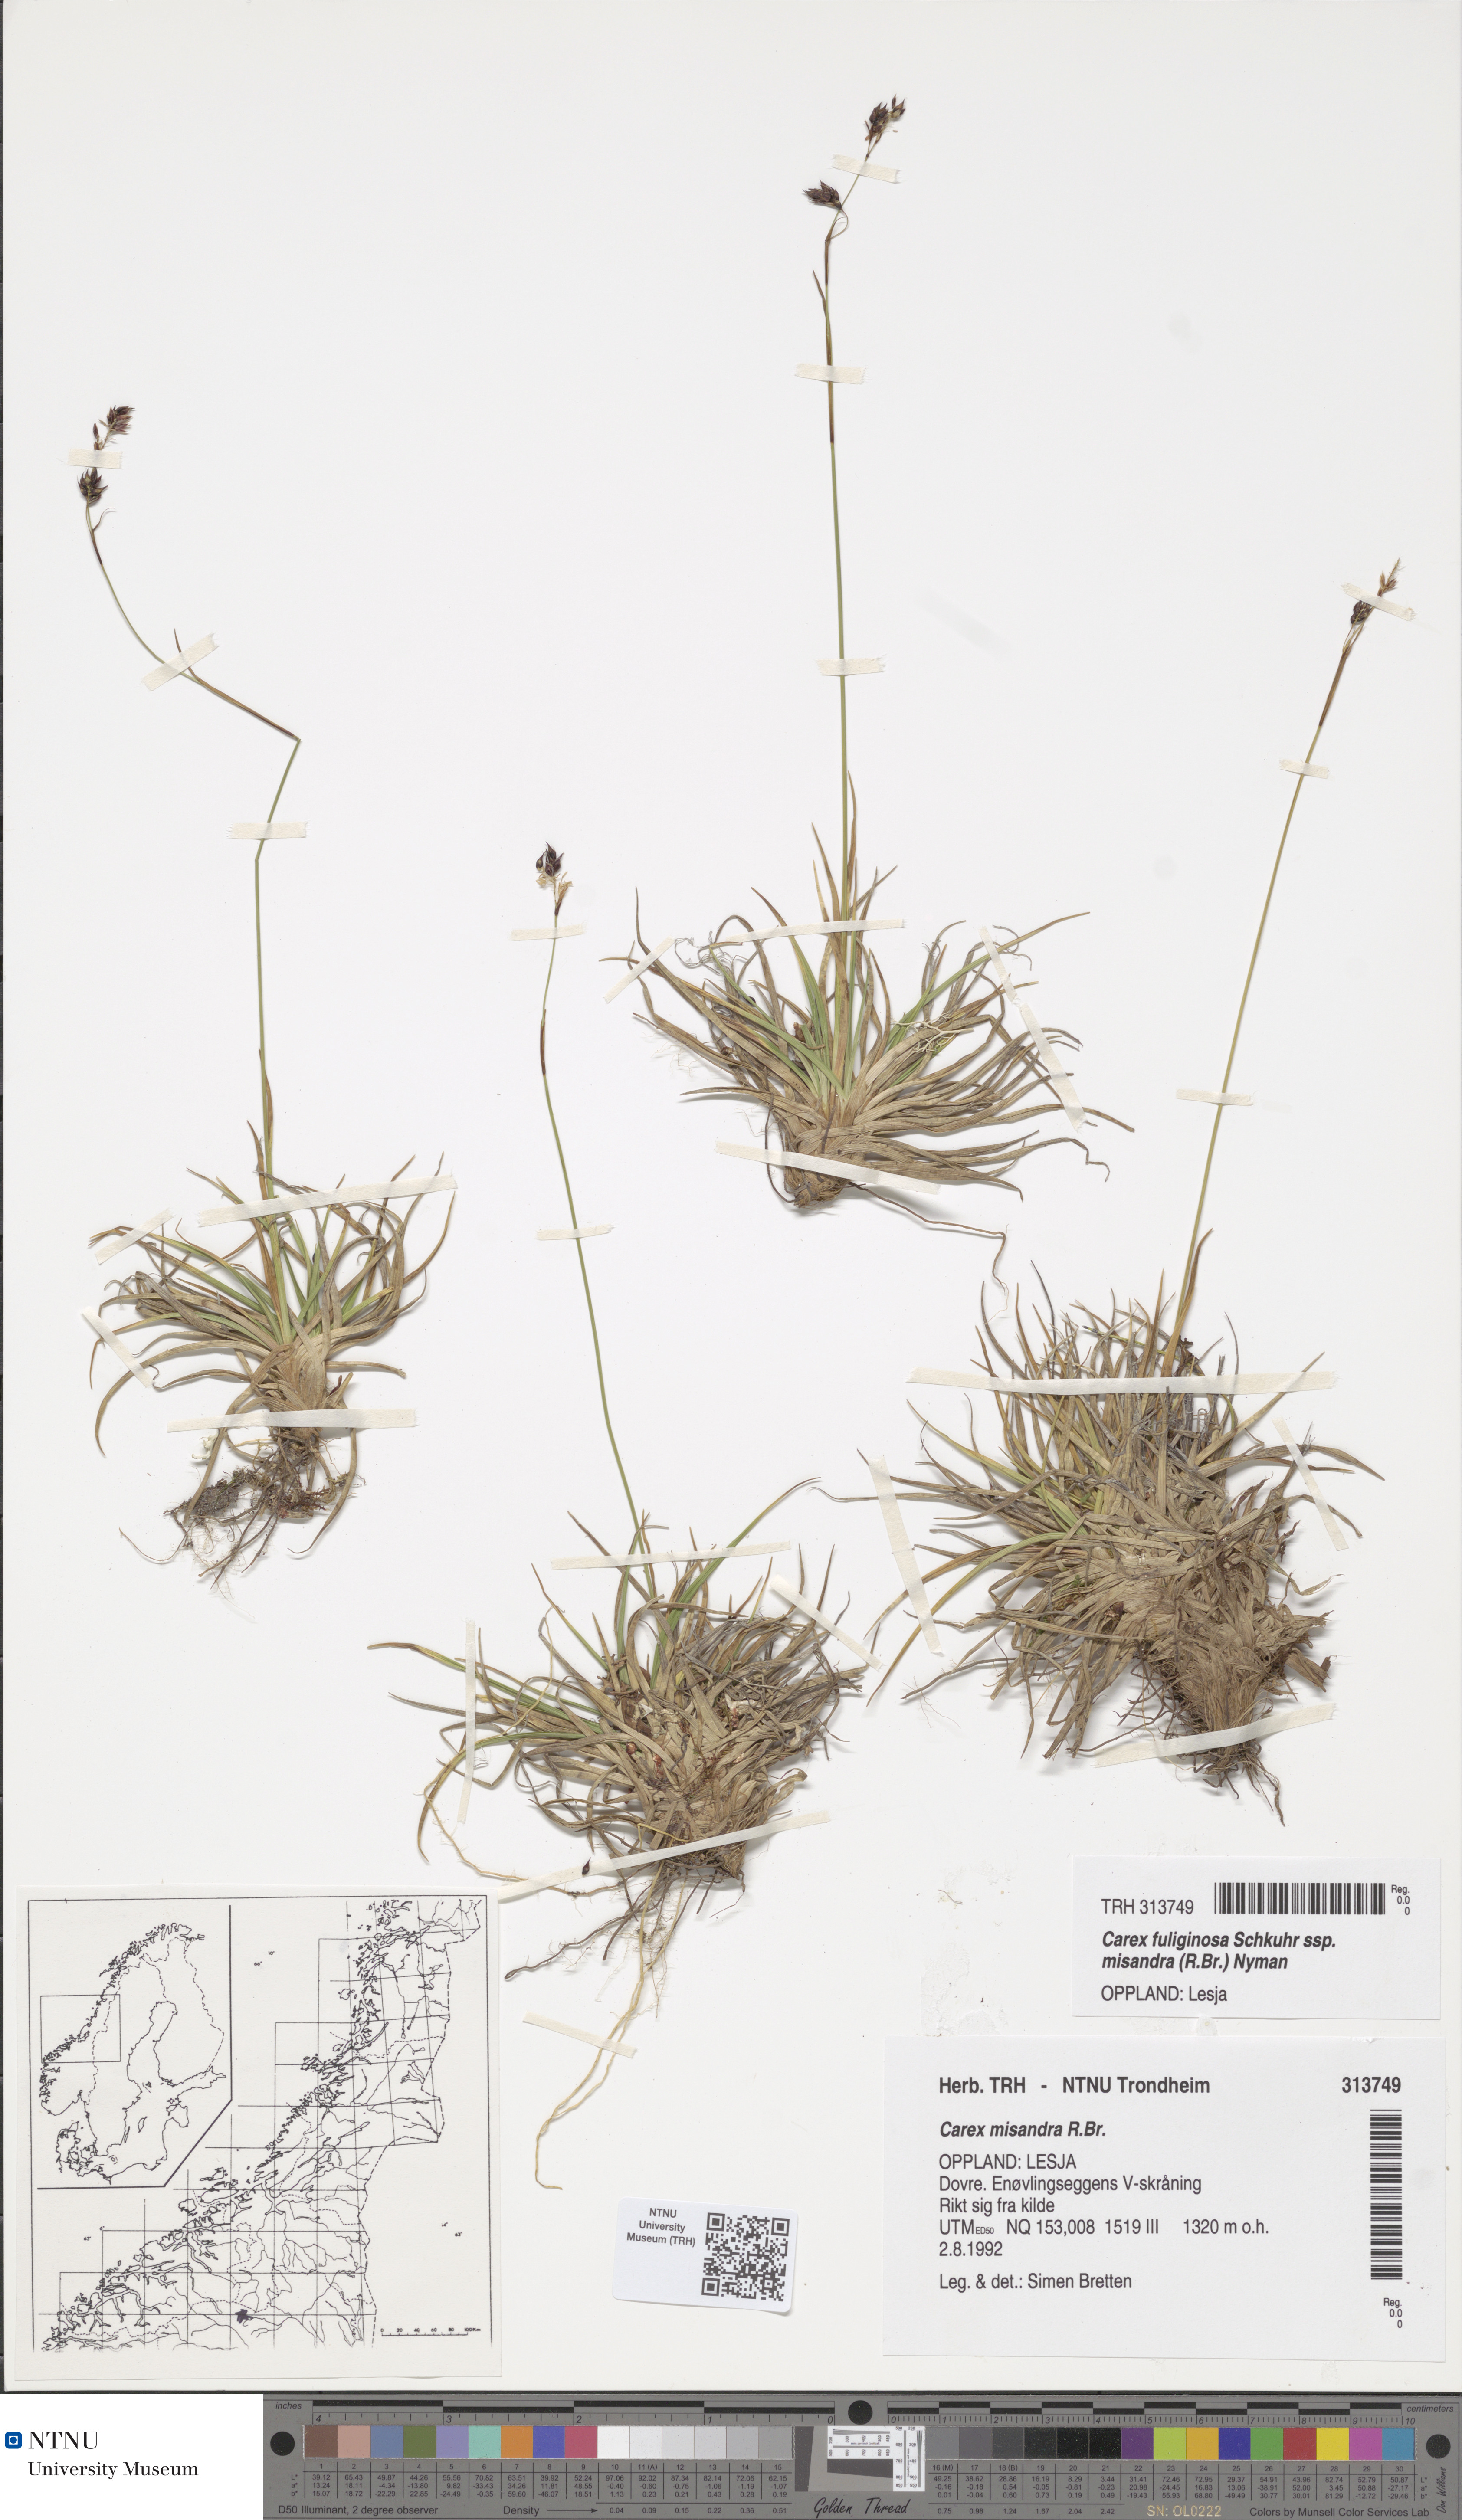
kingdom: Plantae
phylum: Tracheophyta
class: Liliopsida
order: Poales
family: Cyperaceae
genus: Carex
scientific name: Carex fuliginosa
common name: Few-flowered sedge
